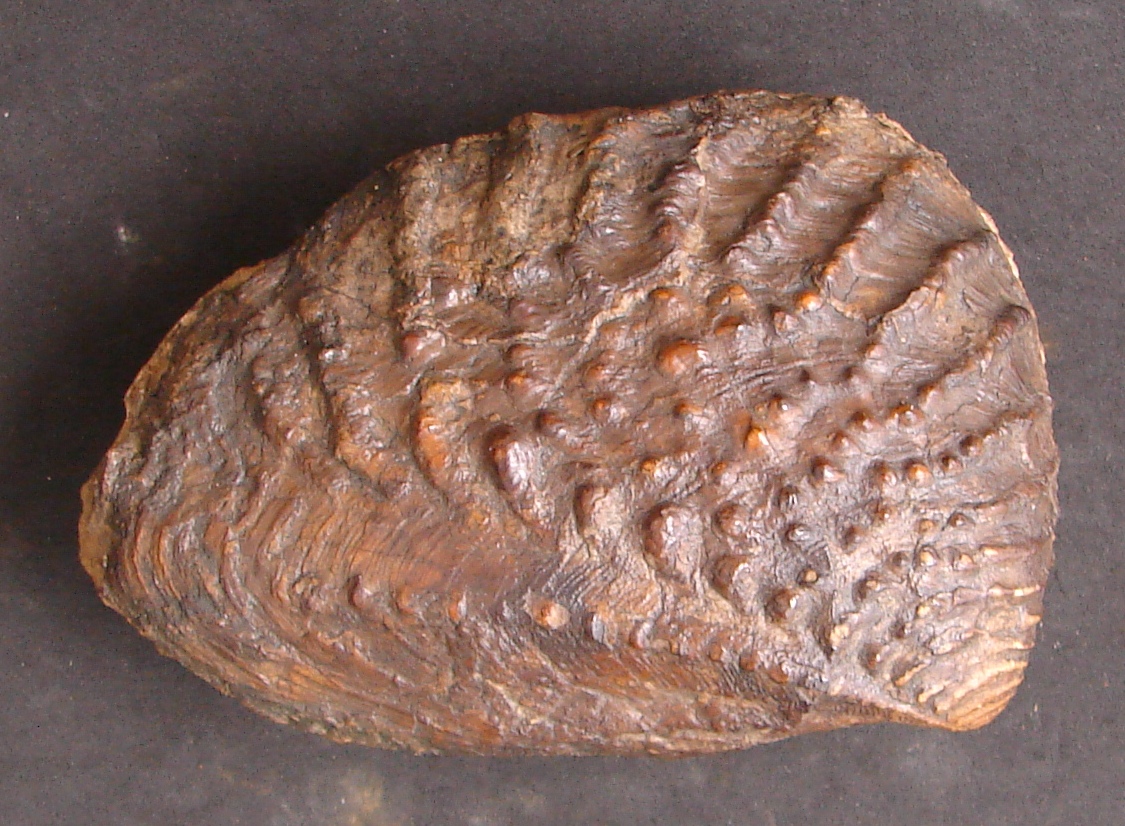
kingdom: Animalia
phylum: Mollusca
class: Bivalvia
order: Trigoniida
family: Myophorellidae
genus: Scaphotrigonia
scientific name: Scaphotrigonia navis
